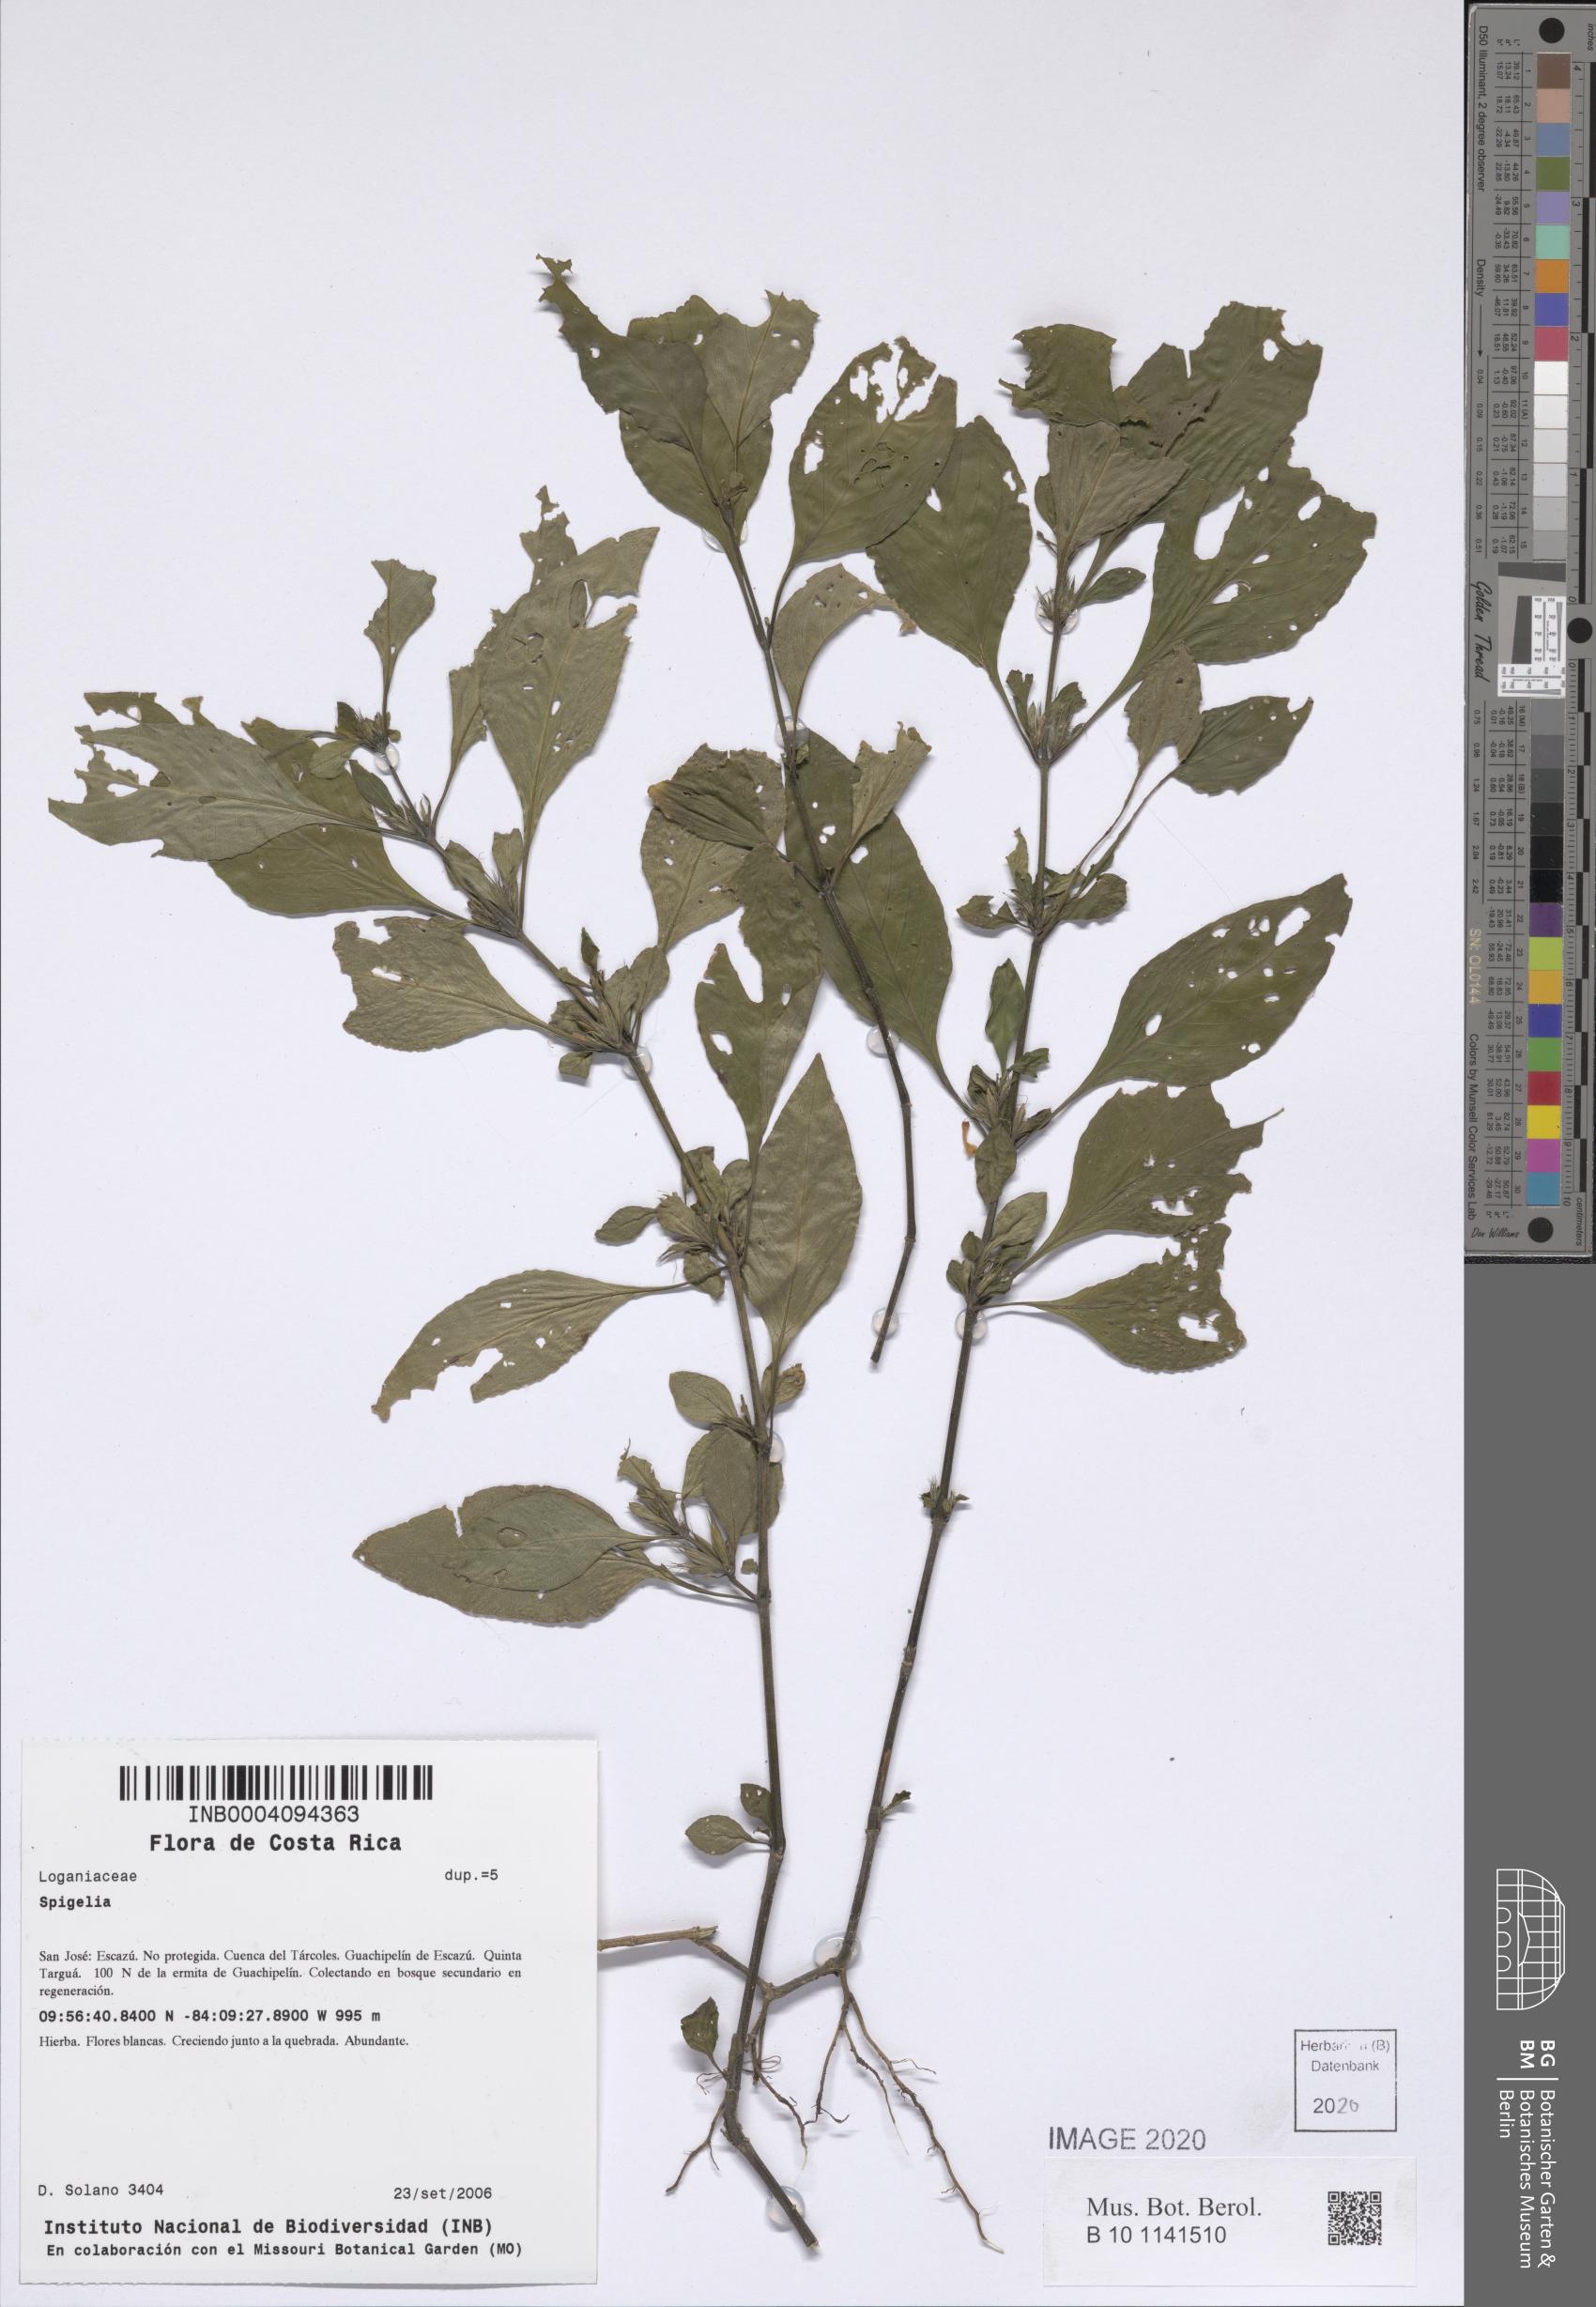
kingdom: Plantae
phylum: Tracheophyta
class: Magnoliopsida
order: Gentianales
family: Loganiaceae
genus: Spigelia
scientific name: Spigelia
